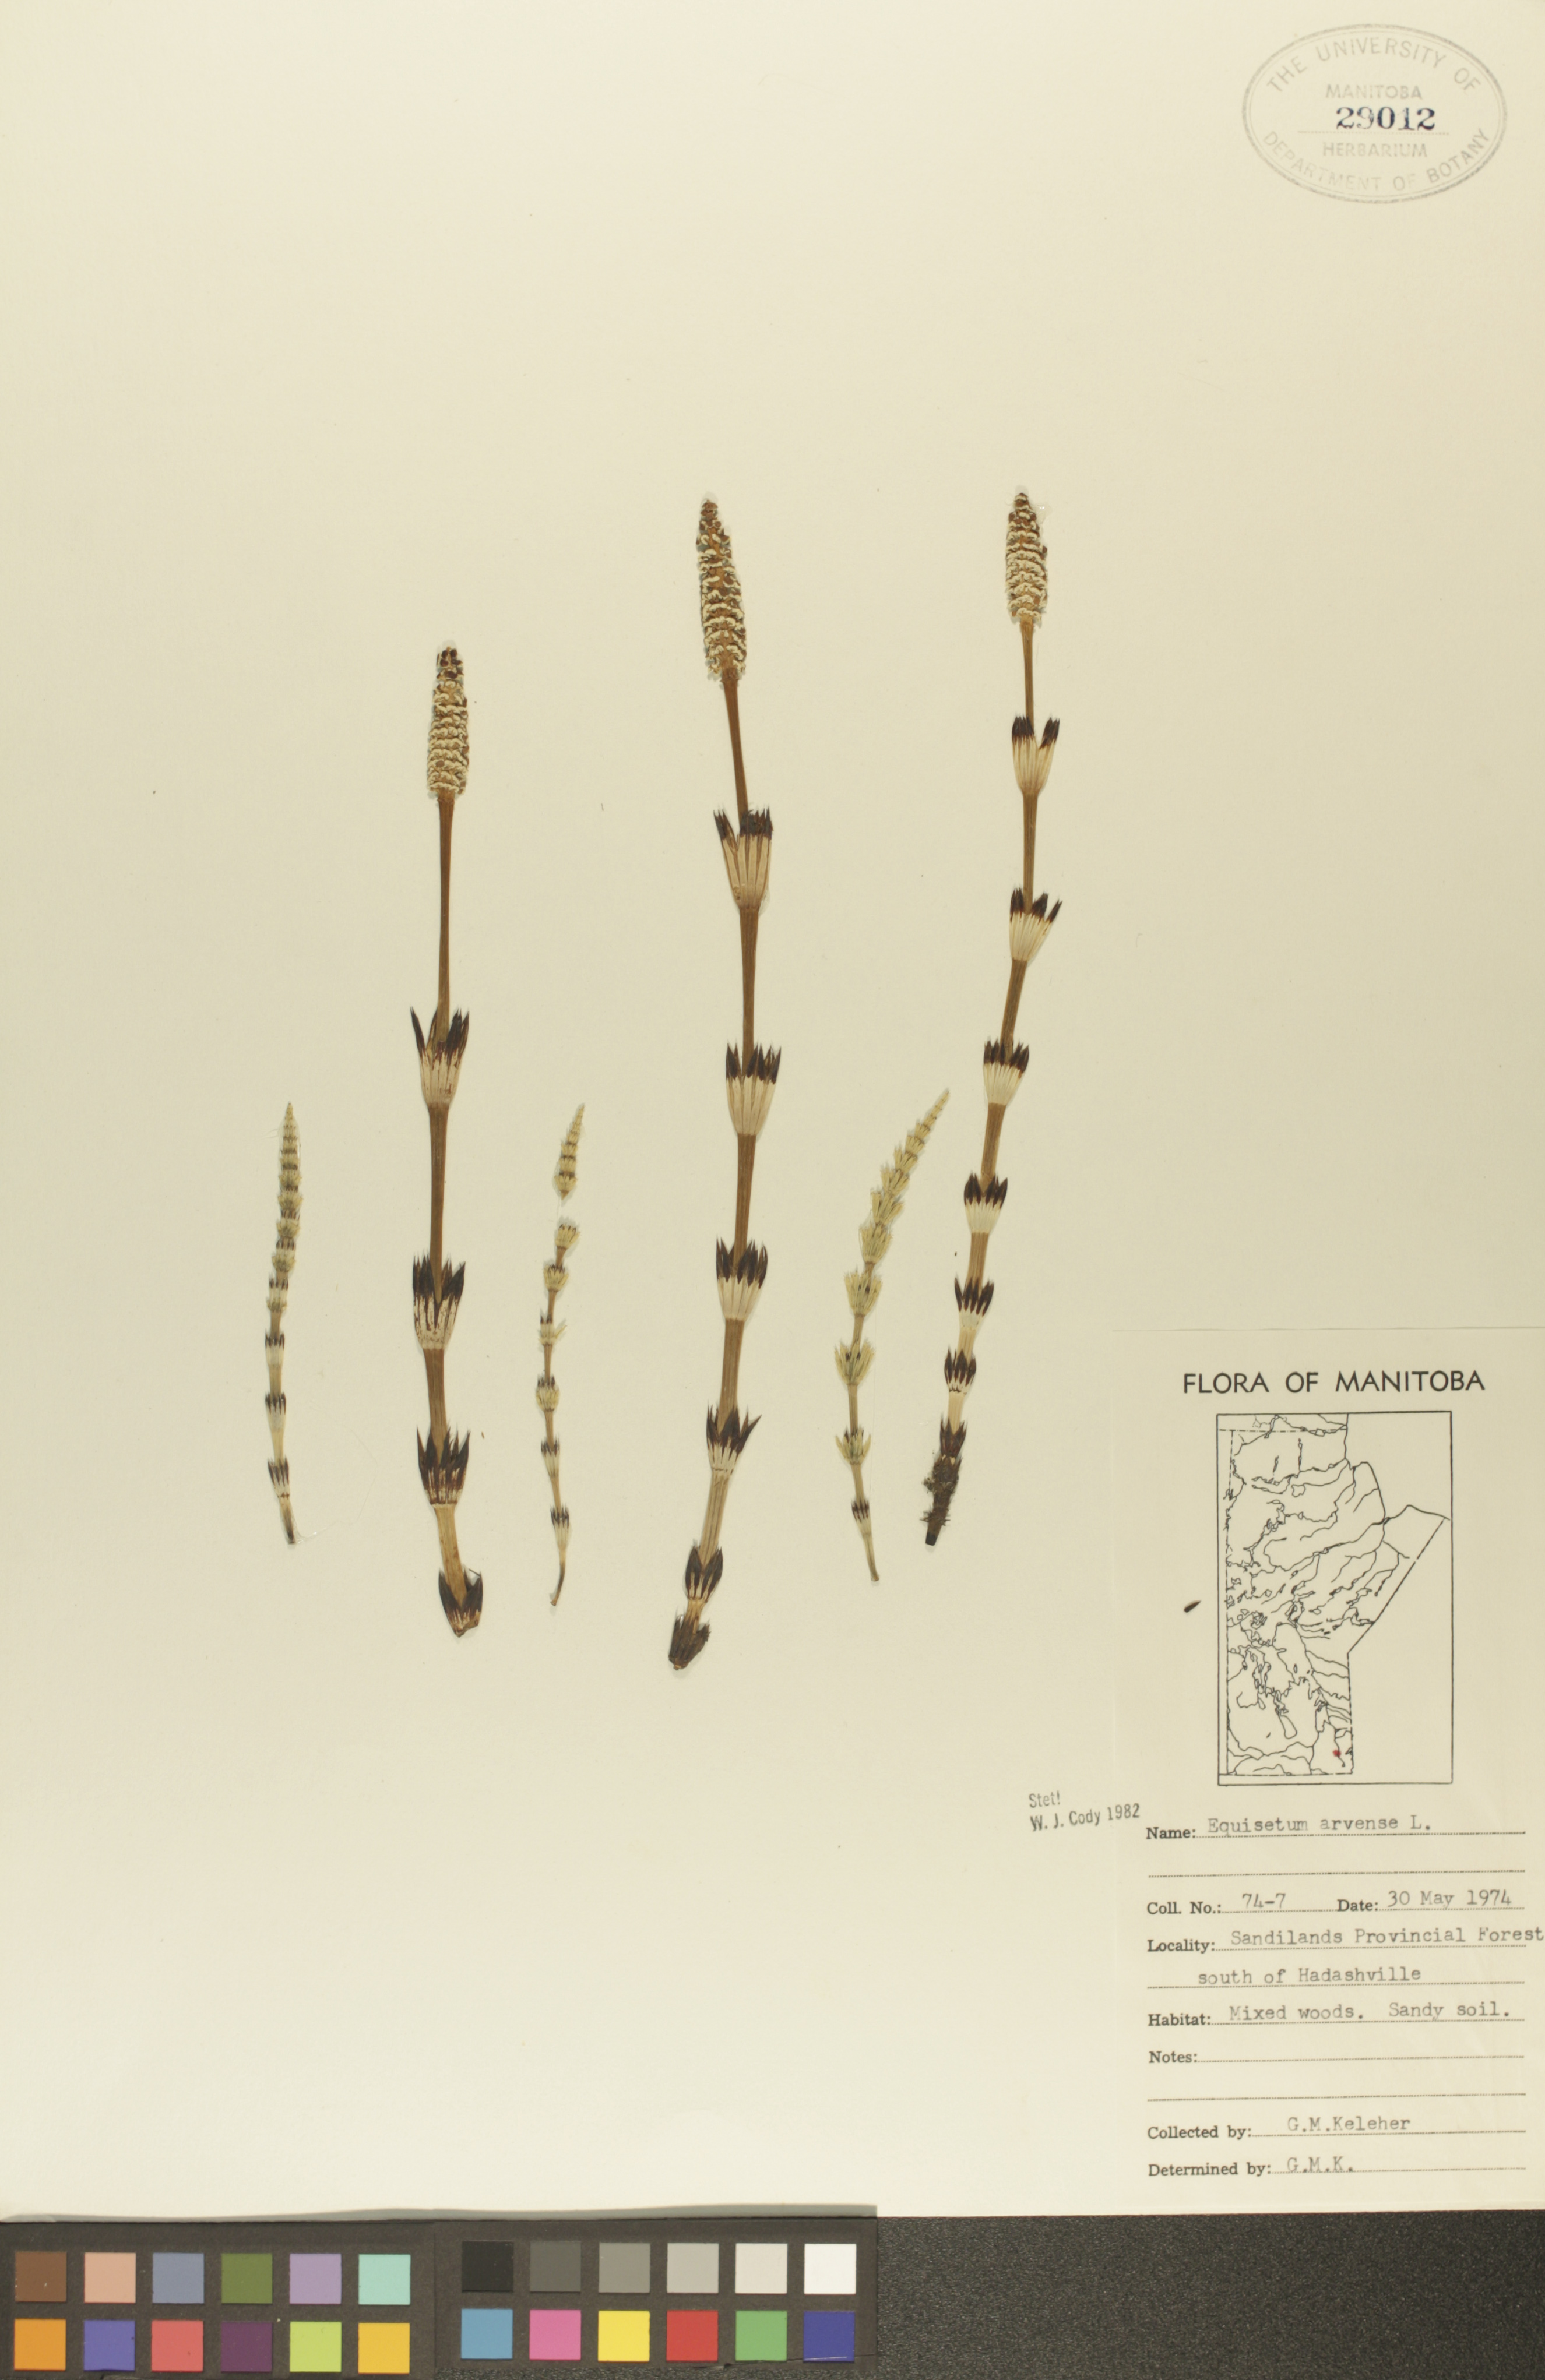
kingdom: Plantae
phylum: Tracheophyta
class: Polypodiopsida
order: Equisetales
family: Equisetaceae
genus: Equisetum
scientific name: Equisetum arvense
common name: Field horsetail
